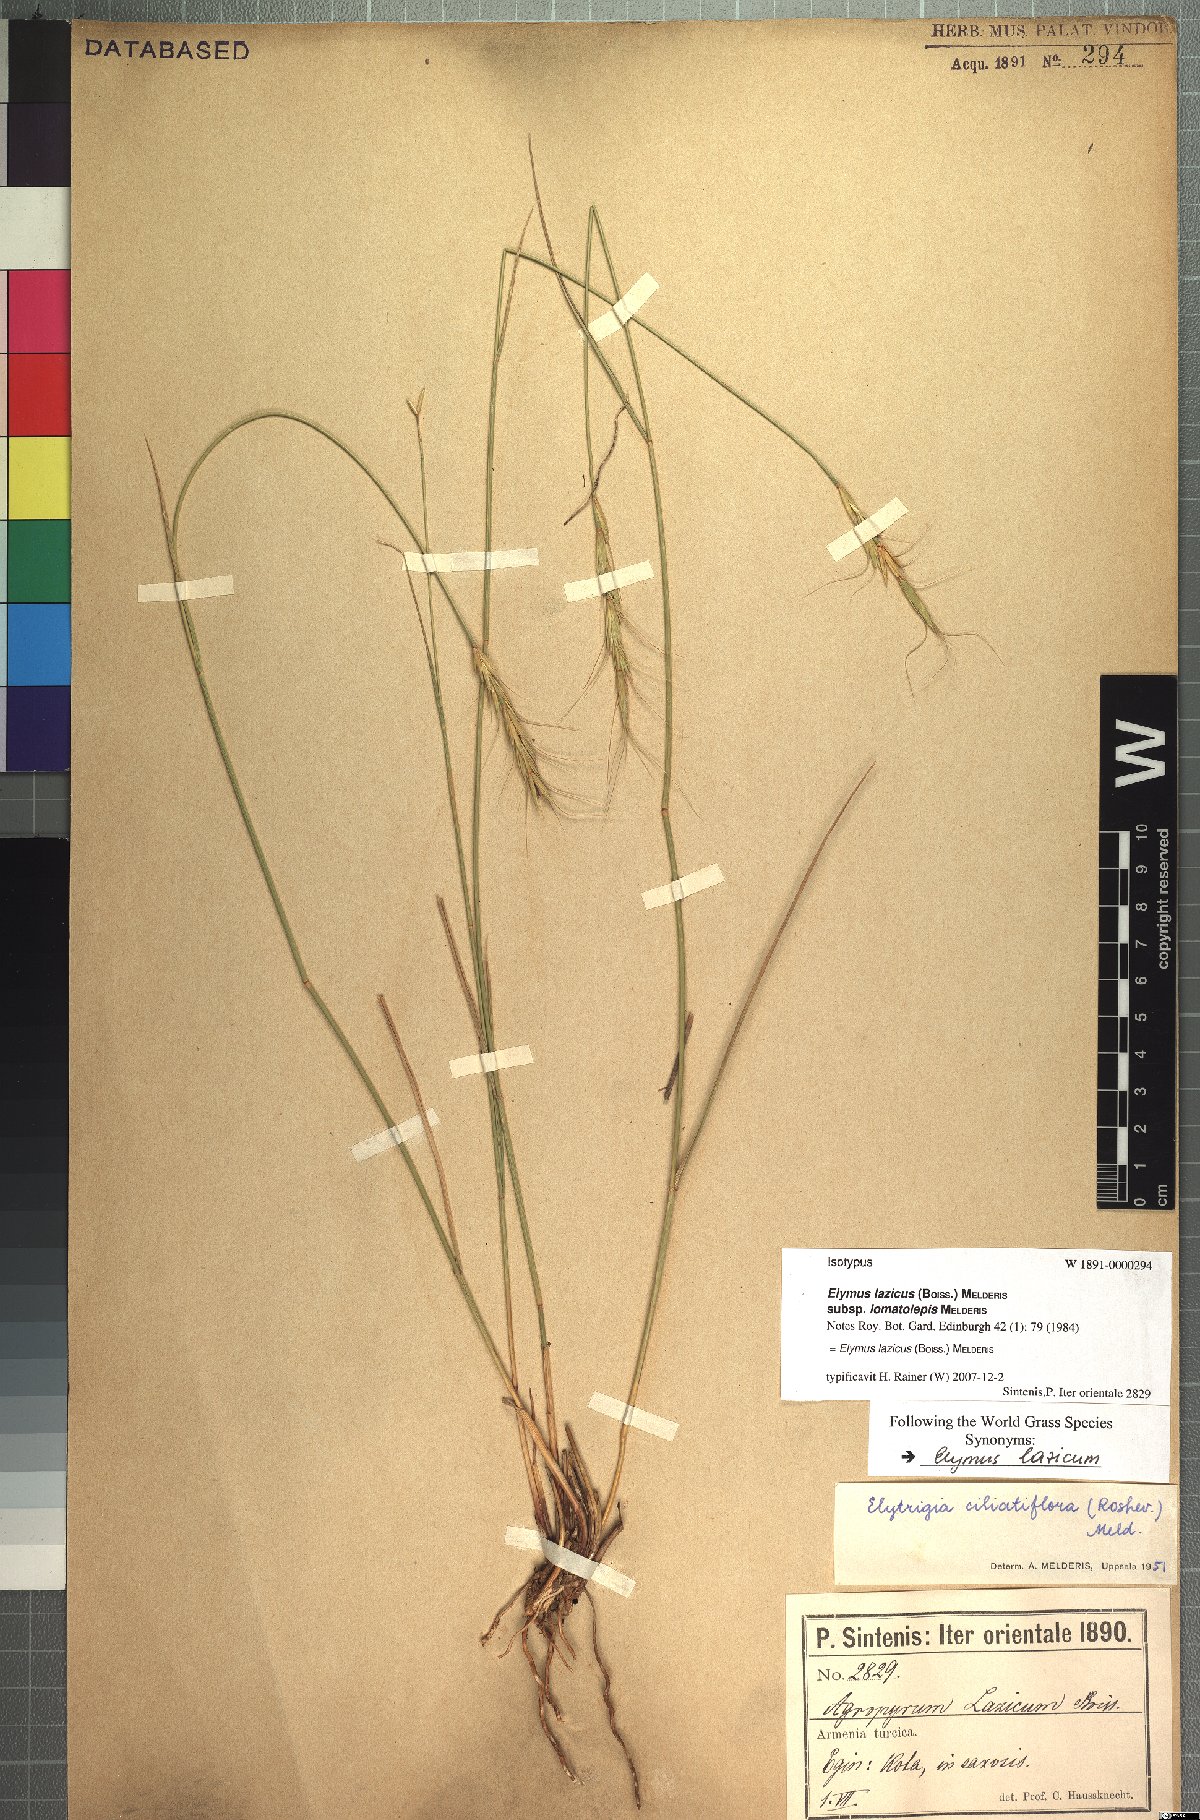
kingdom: Plantae
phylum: Tracheophyta
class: Liliopsida
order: Poales
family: Poaceae
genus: Elymus
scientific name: Elymus lazicus
